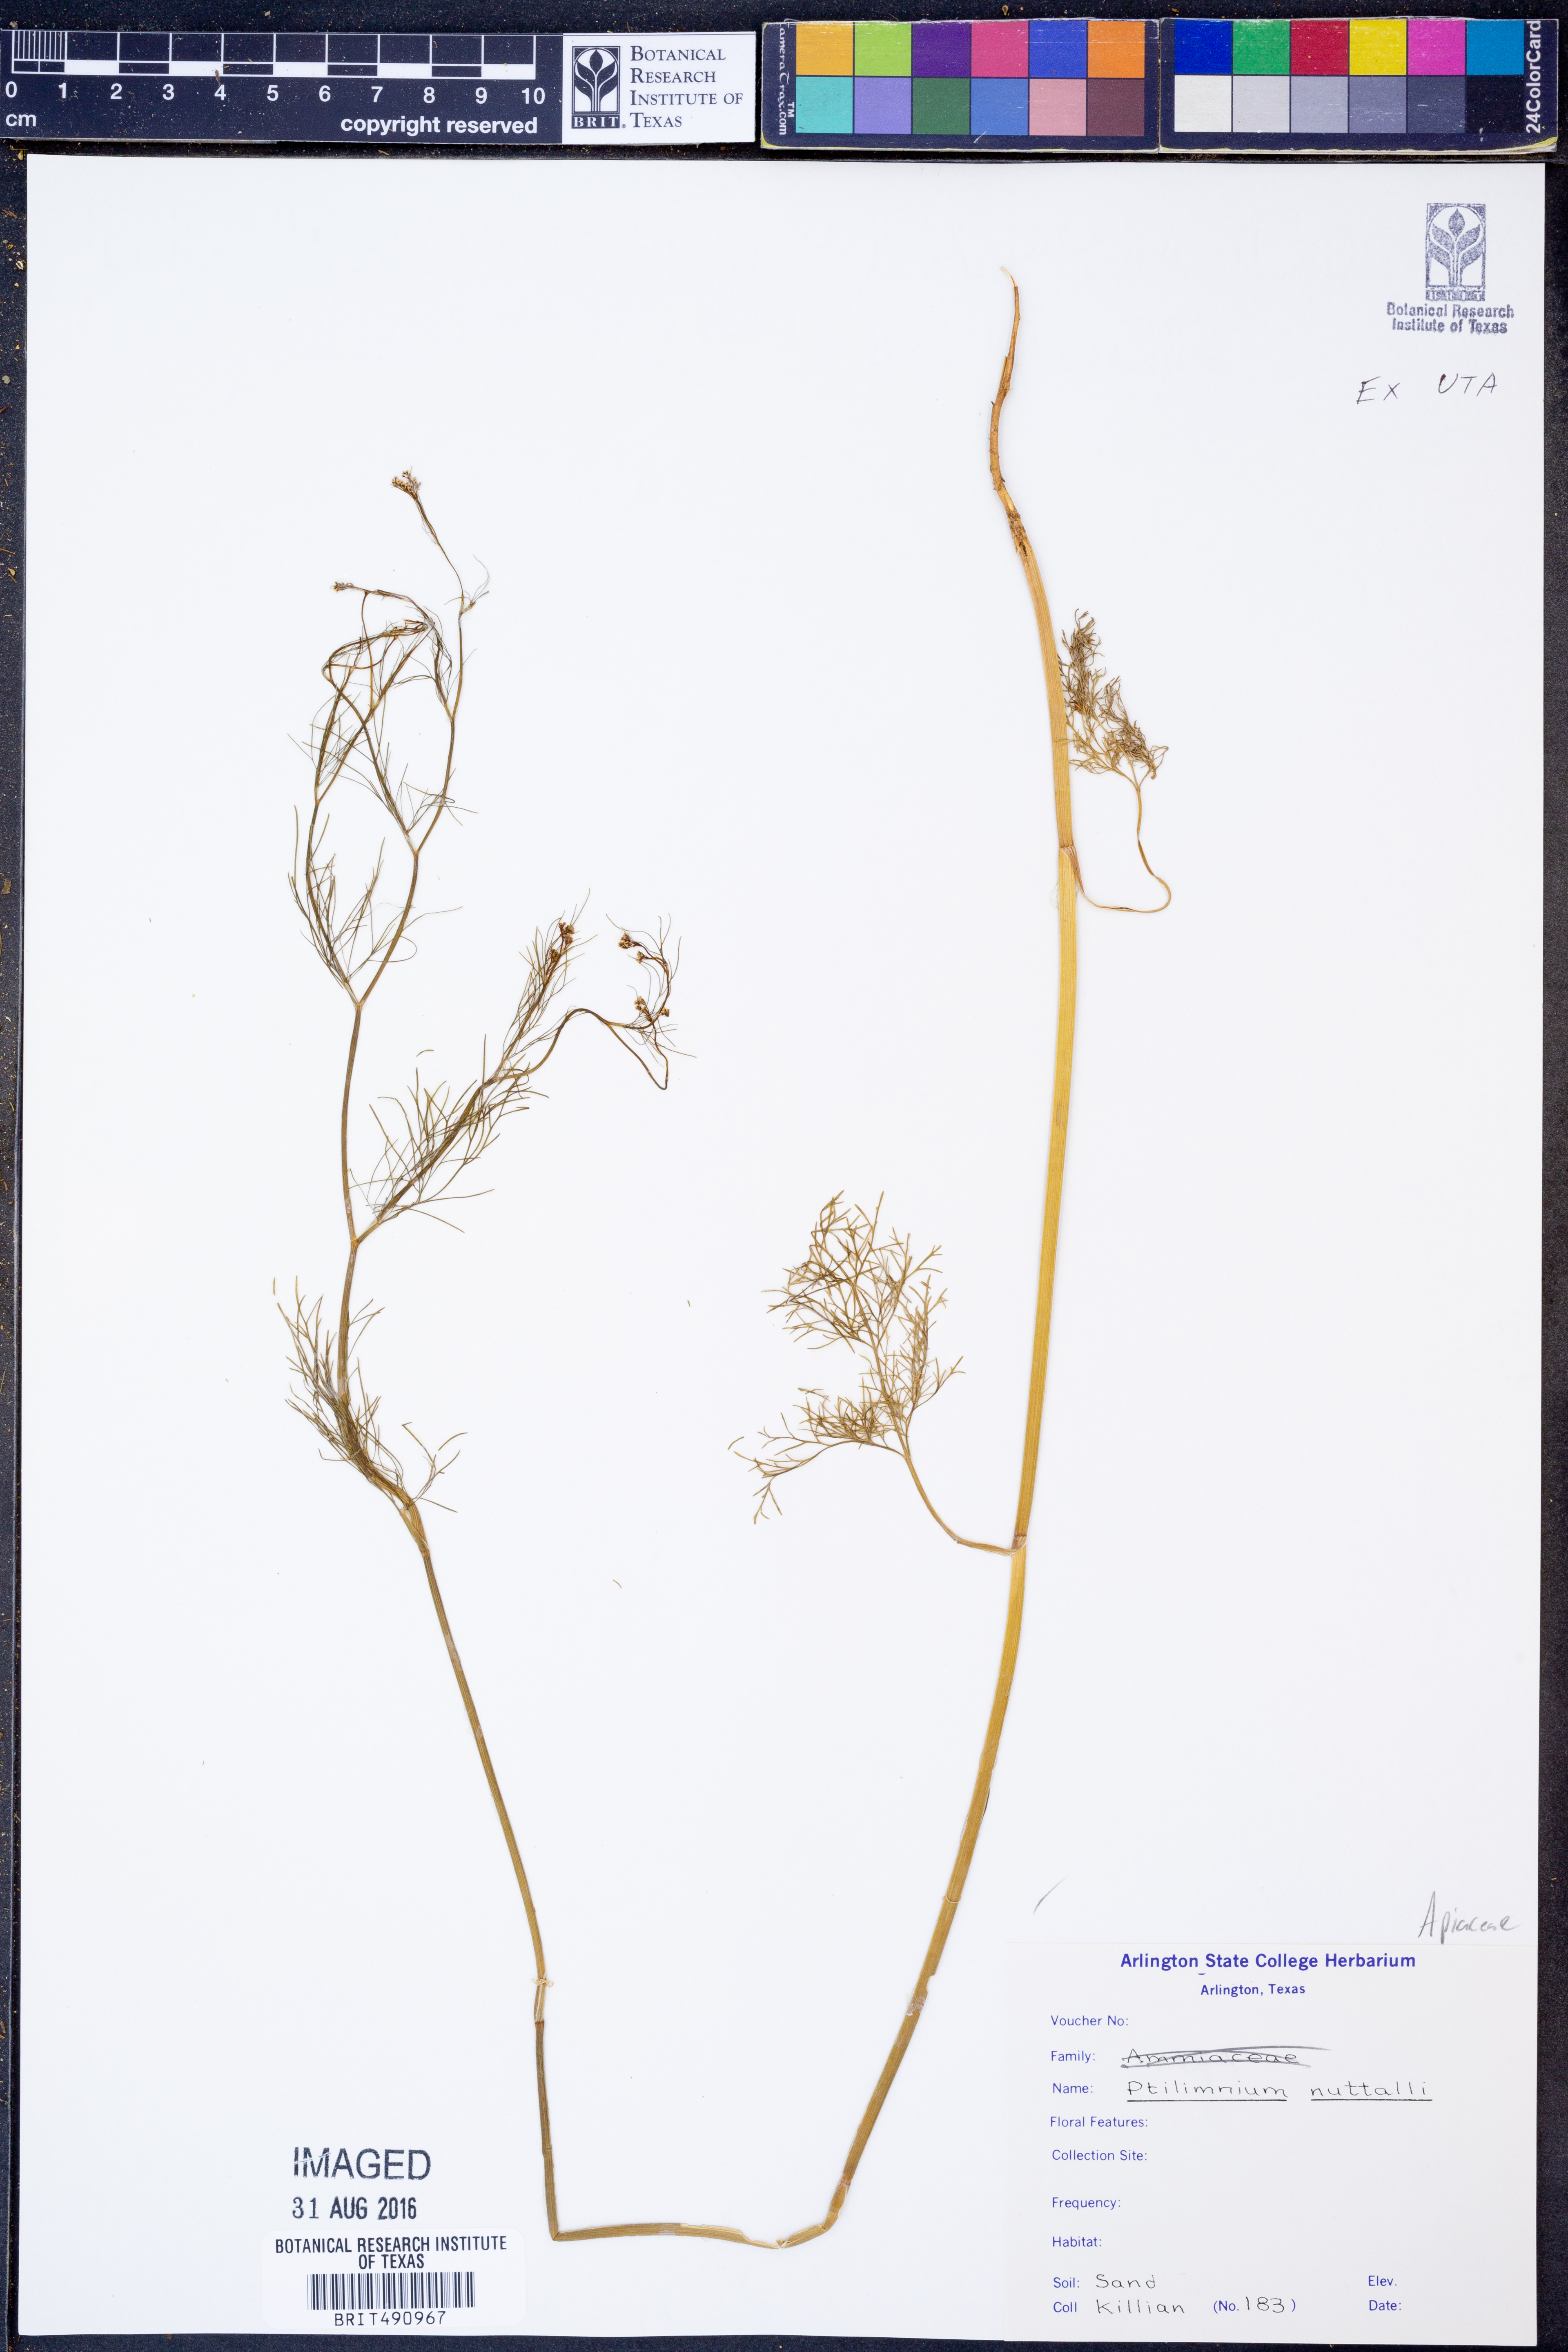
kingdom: Plantae
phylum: Tracheophyta
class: Magnoliopsida
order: Apiales
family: Apiaceae
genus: Ptilimnium
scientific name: Ptilimnium nuttallii
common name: Ozark bishop's-weed
